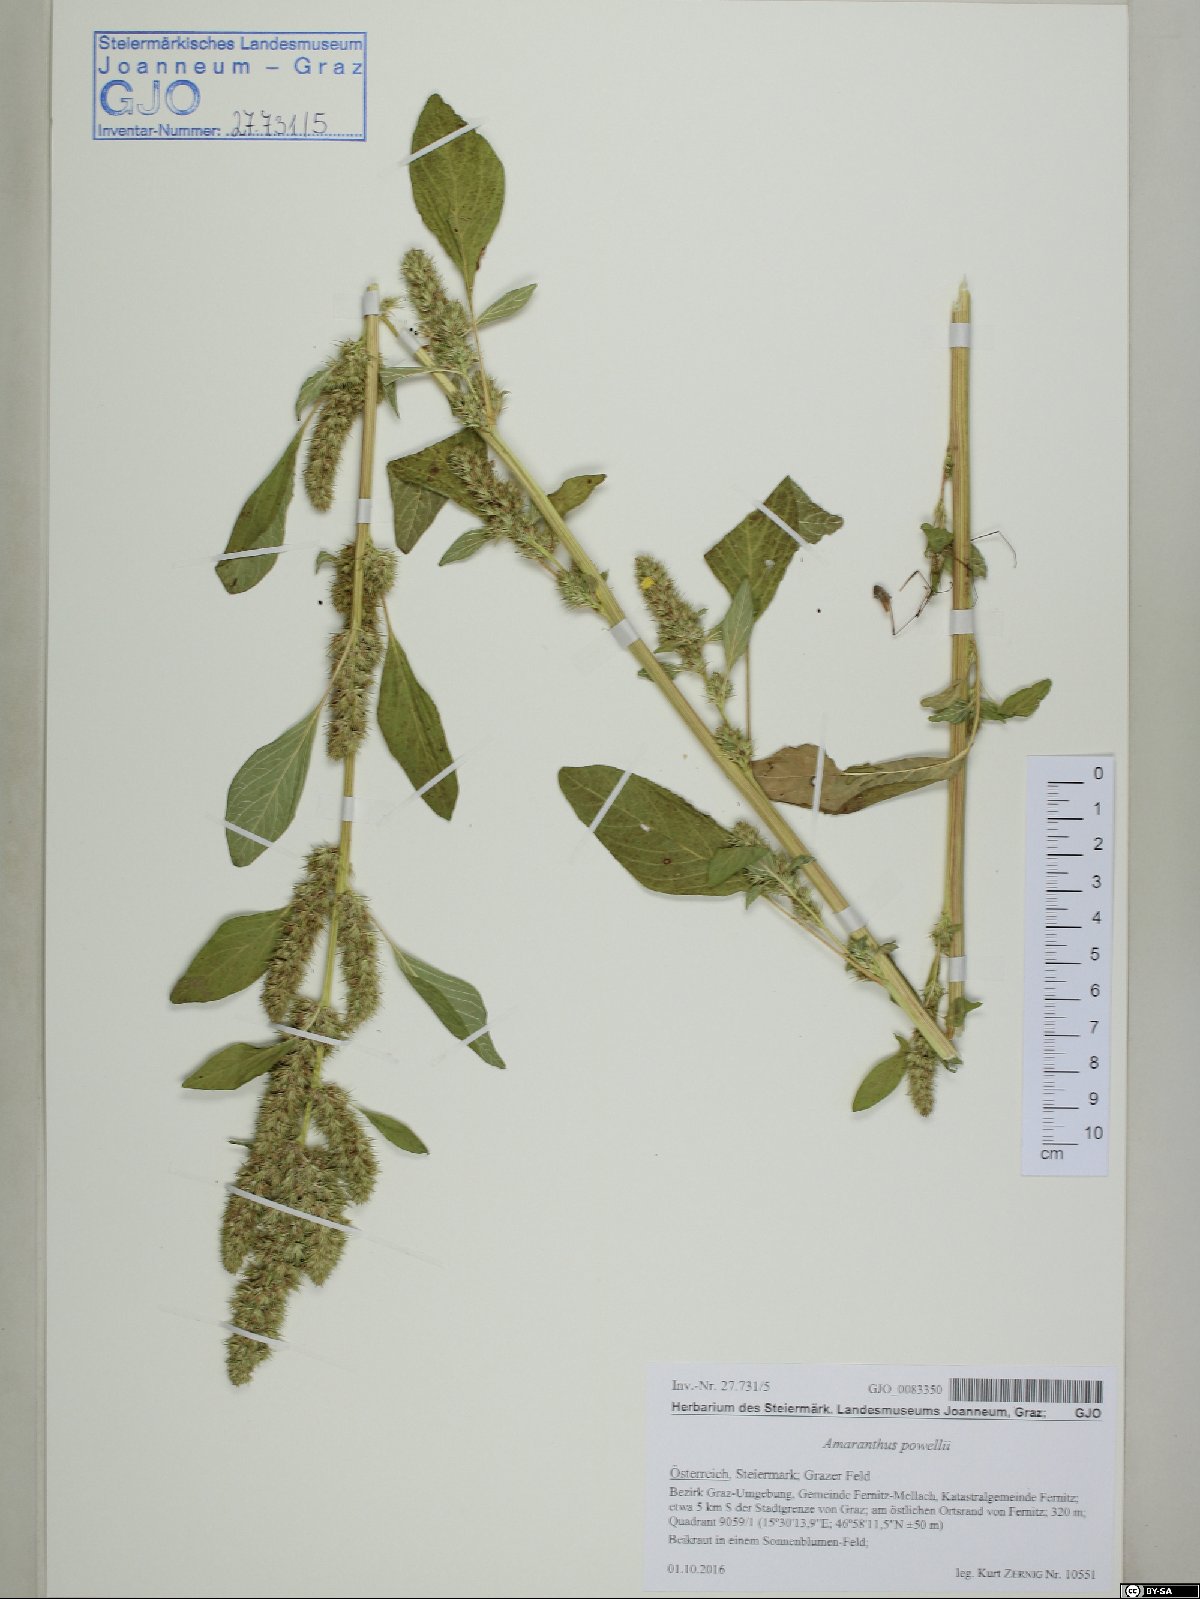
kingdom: Plantae
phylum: Tracheophyta
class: Magnoliopsida
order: Caryophyllales
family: Amaranthaceae
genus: Amaranthus
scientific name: Amaranthus powellii
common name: Powell's amaranth
